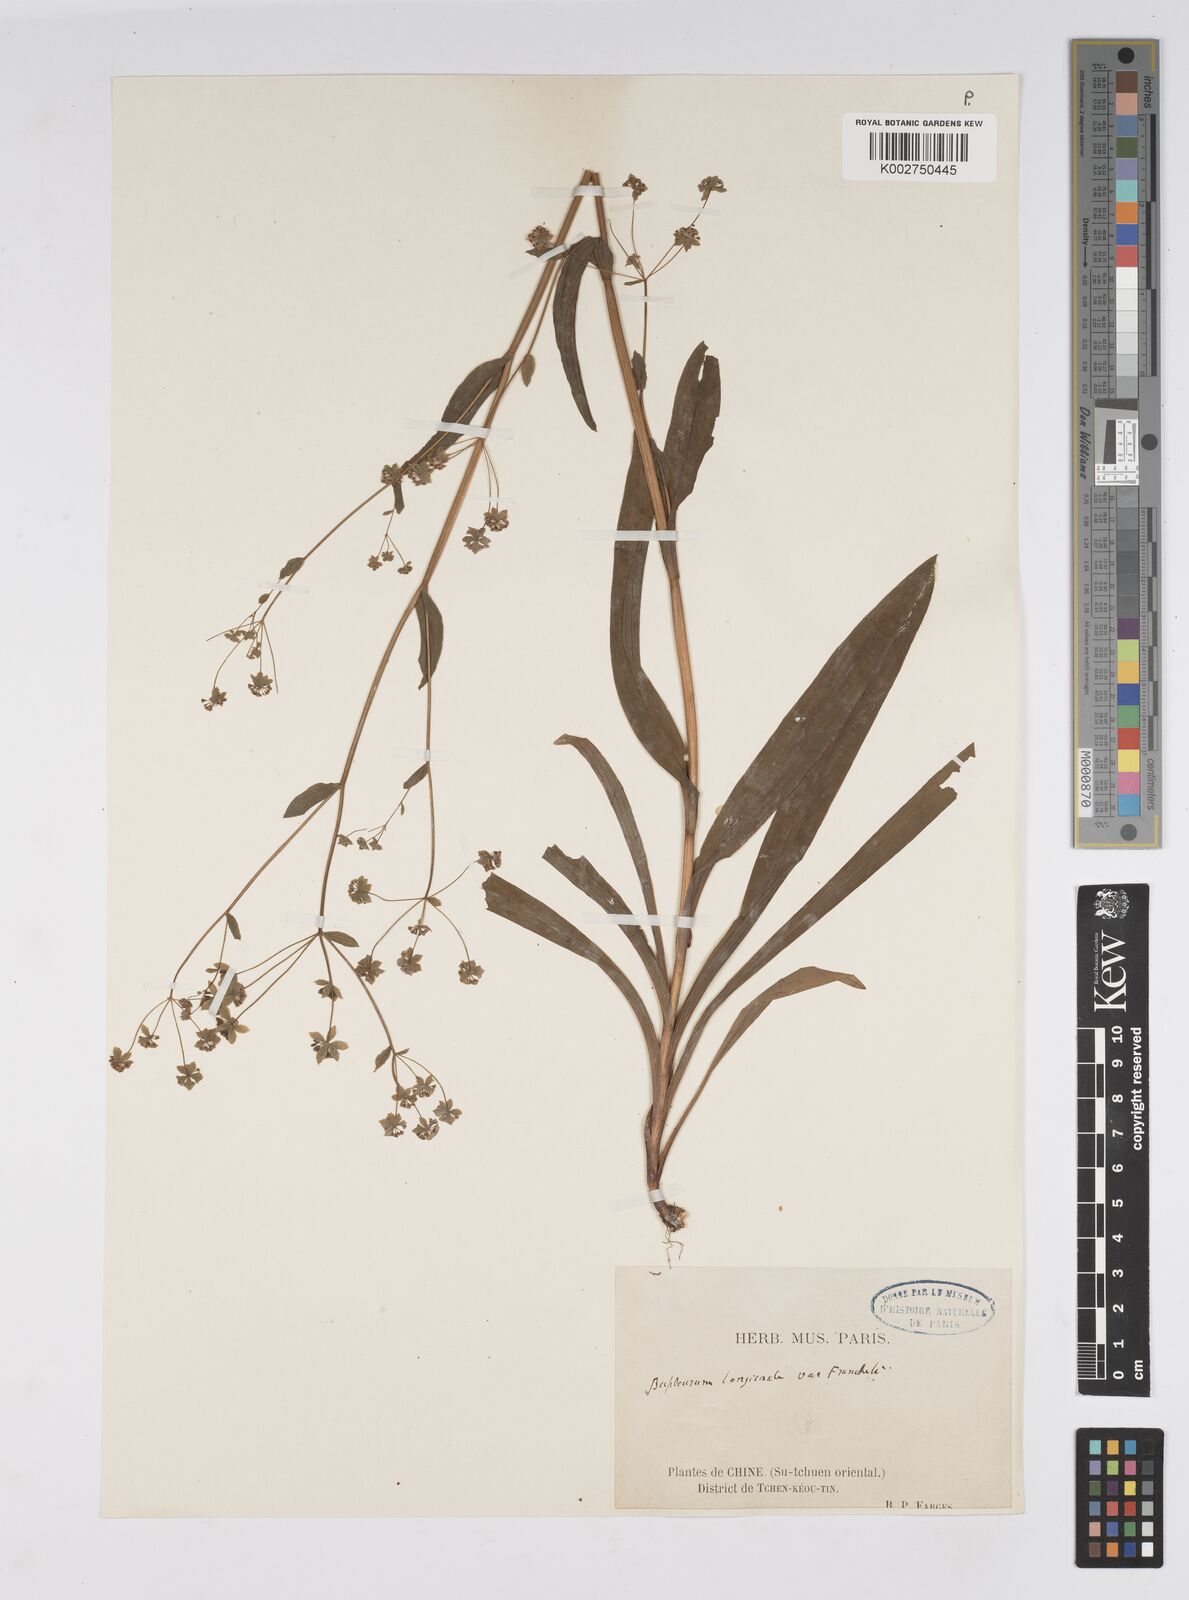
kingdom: Plantae
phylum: Tracheophyta
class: Magnoliopsida
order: Apiales
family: Apiaceae
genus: Bupleurum
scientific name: Bupleurum longicaule
